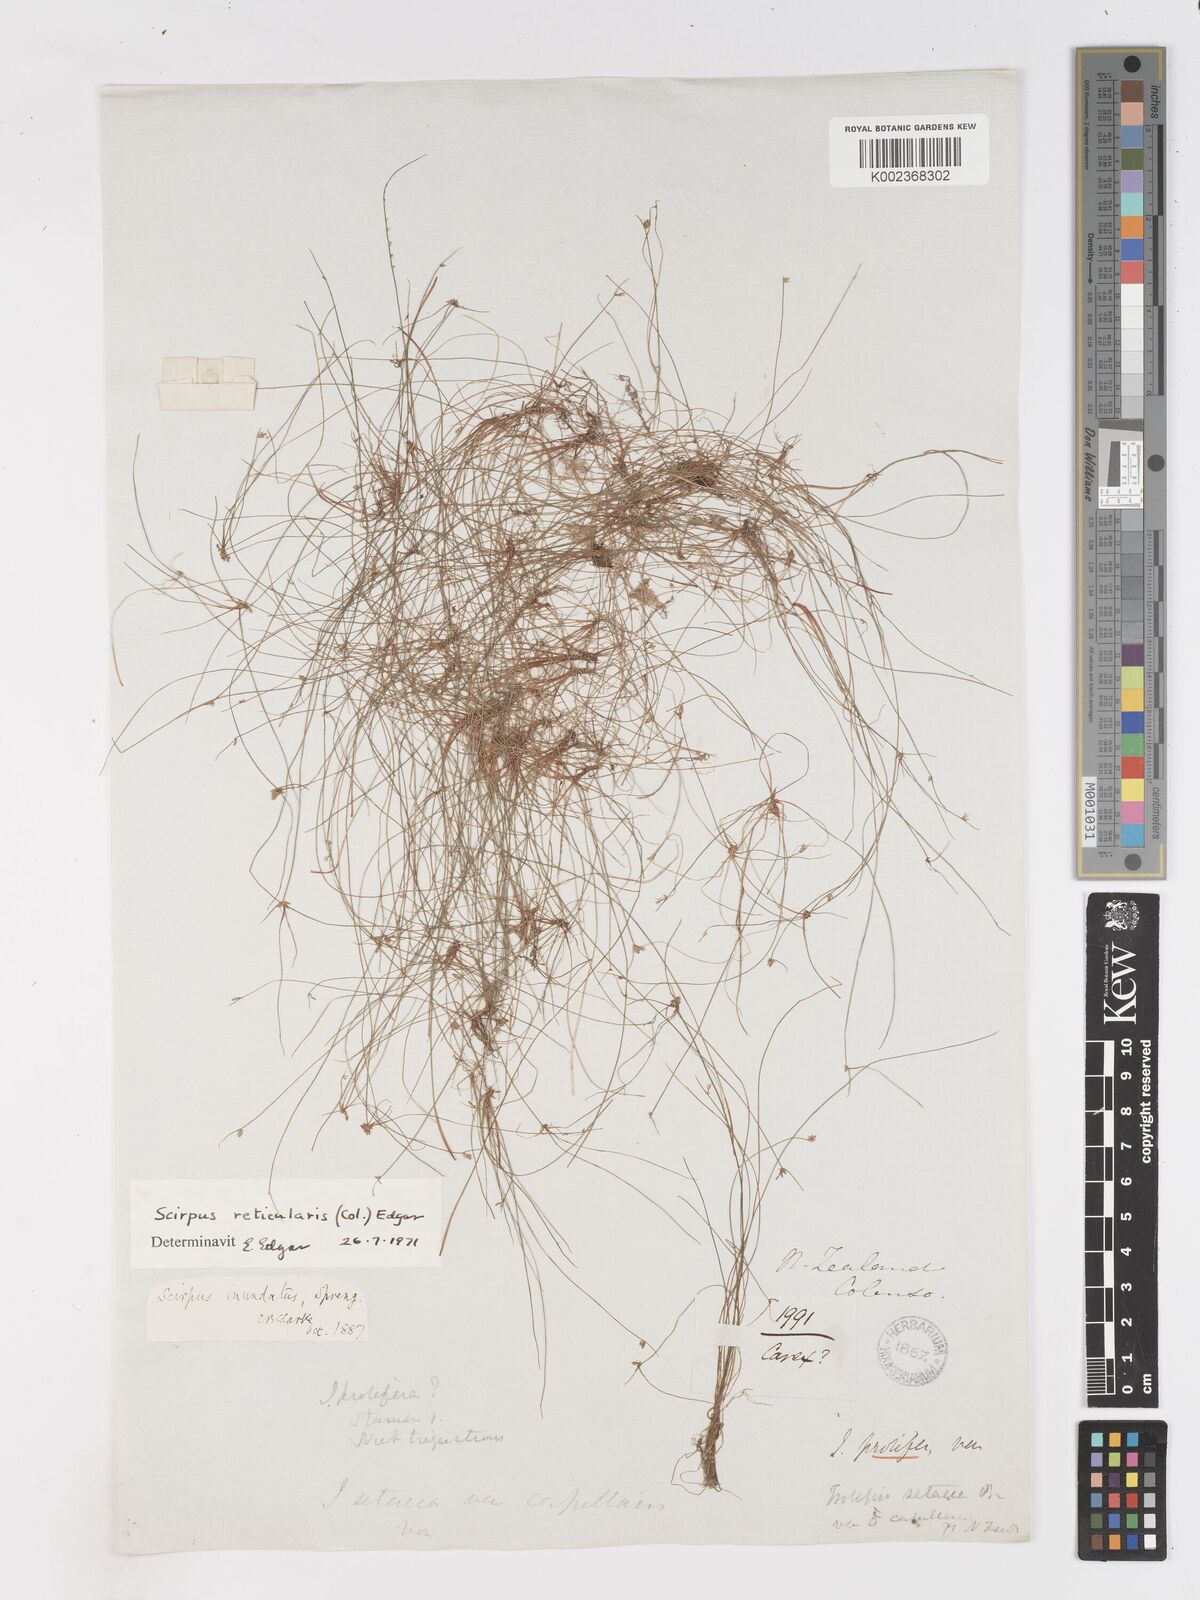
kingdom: Plantae
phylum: Tracheophyta
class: Liliopsida
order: Poales
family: Cyperaceae
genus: Isolepis
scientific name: Isolepis reticularis
